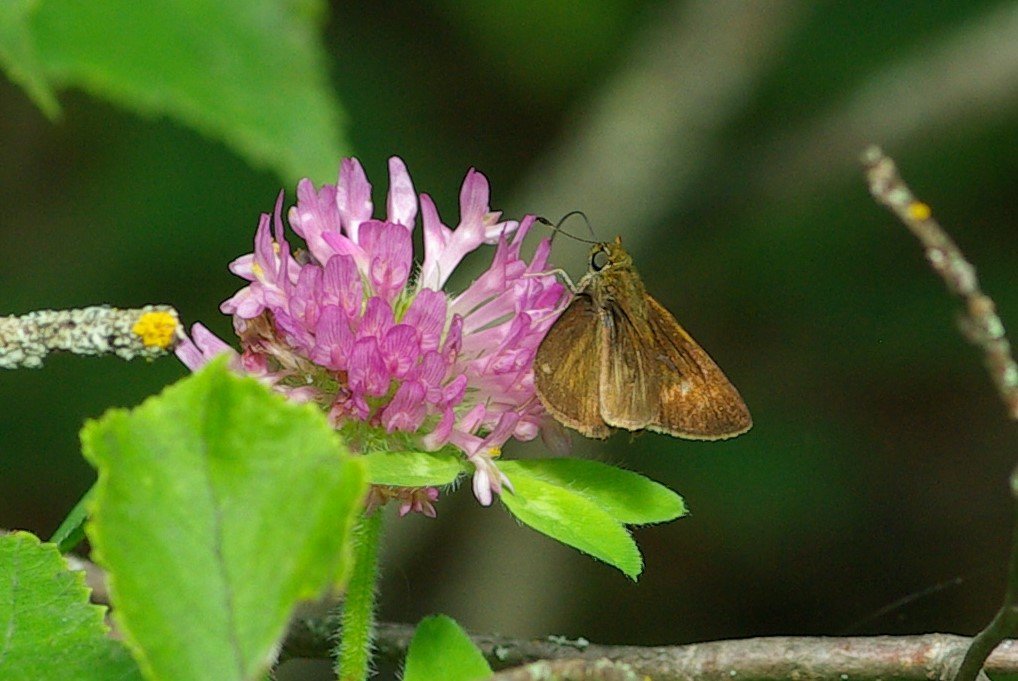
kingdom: Animalia
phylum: Arthropoda
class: Insecta
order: Lepidoptera
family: Hesperiidae
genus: Euphyes
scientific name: Euphyes vestris
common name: Dun Skipper
